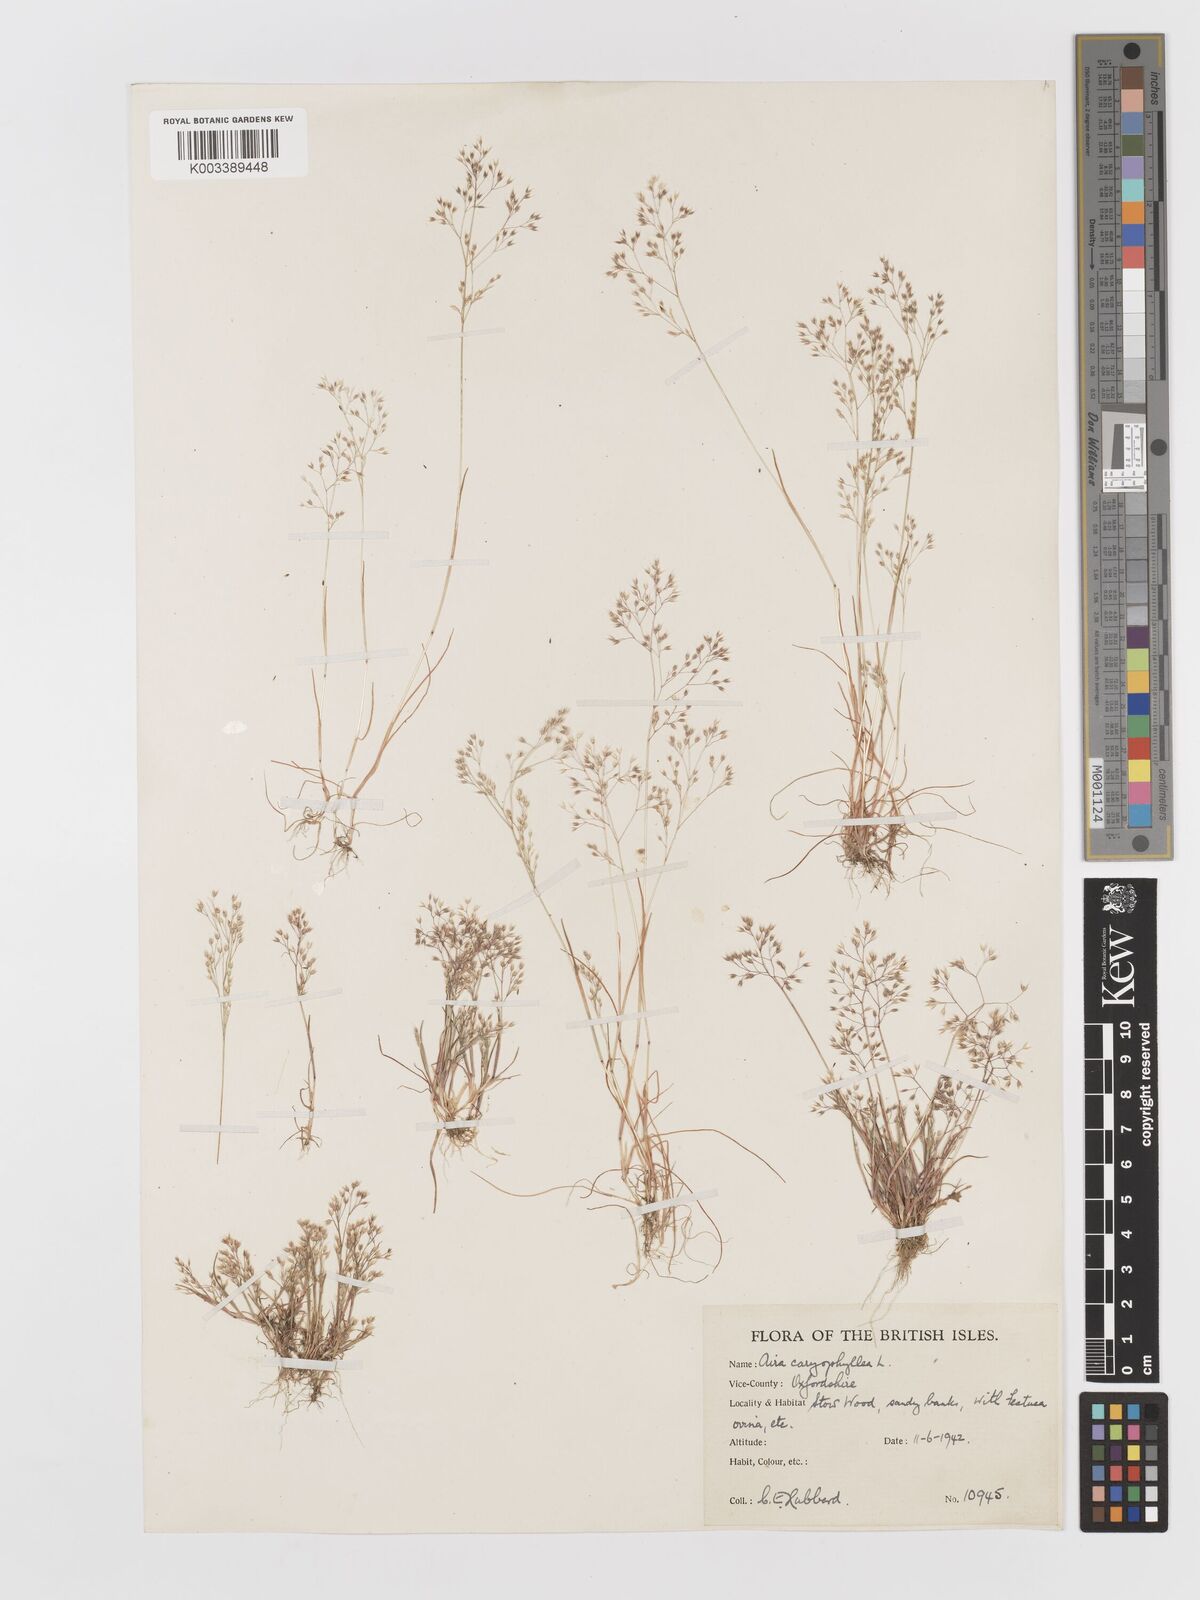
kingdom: Plantae
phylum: Tracheophyta
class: Liliopsida
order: Poales
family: Poaceae
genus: Aira
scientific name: Aira caryophyllea
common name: Silver hairgrass
